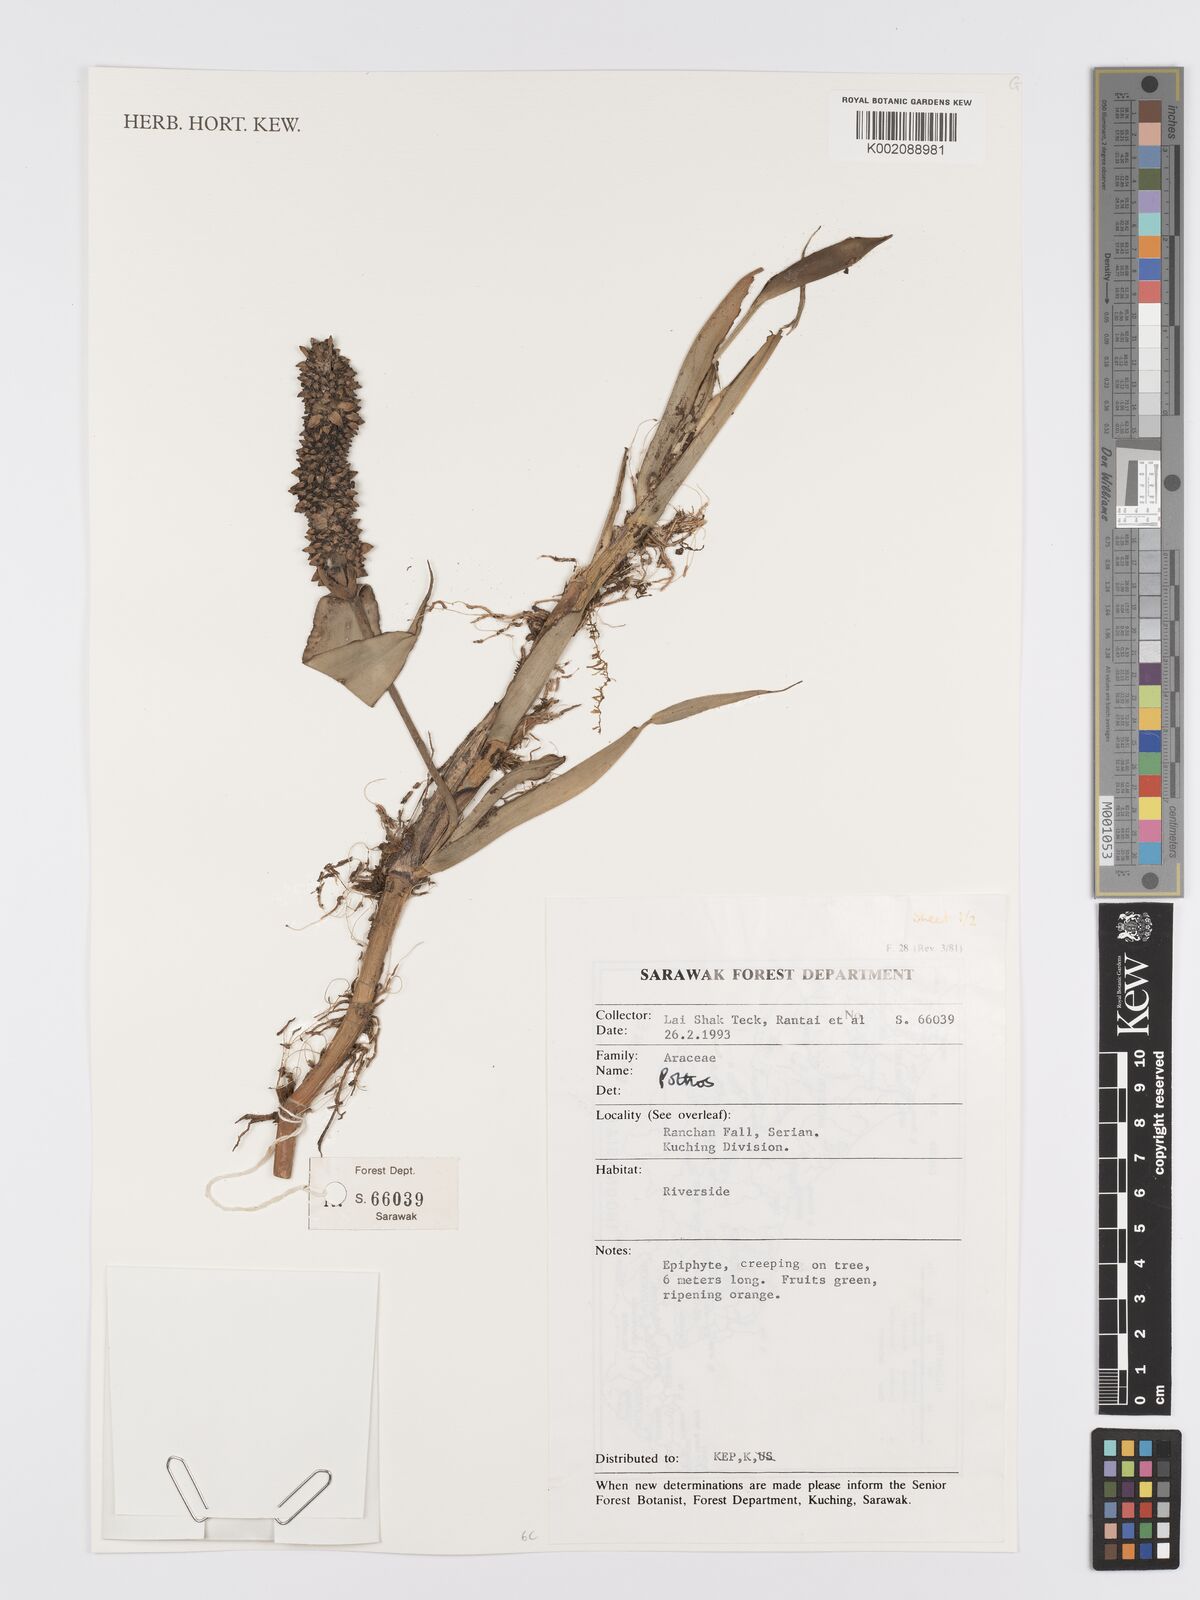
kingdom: Plantae
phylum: Tracheophyta
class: Liliopsida
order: Alismatales
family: Araceae
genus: Pothos
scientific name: Pothos
